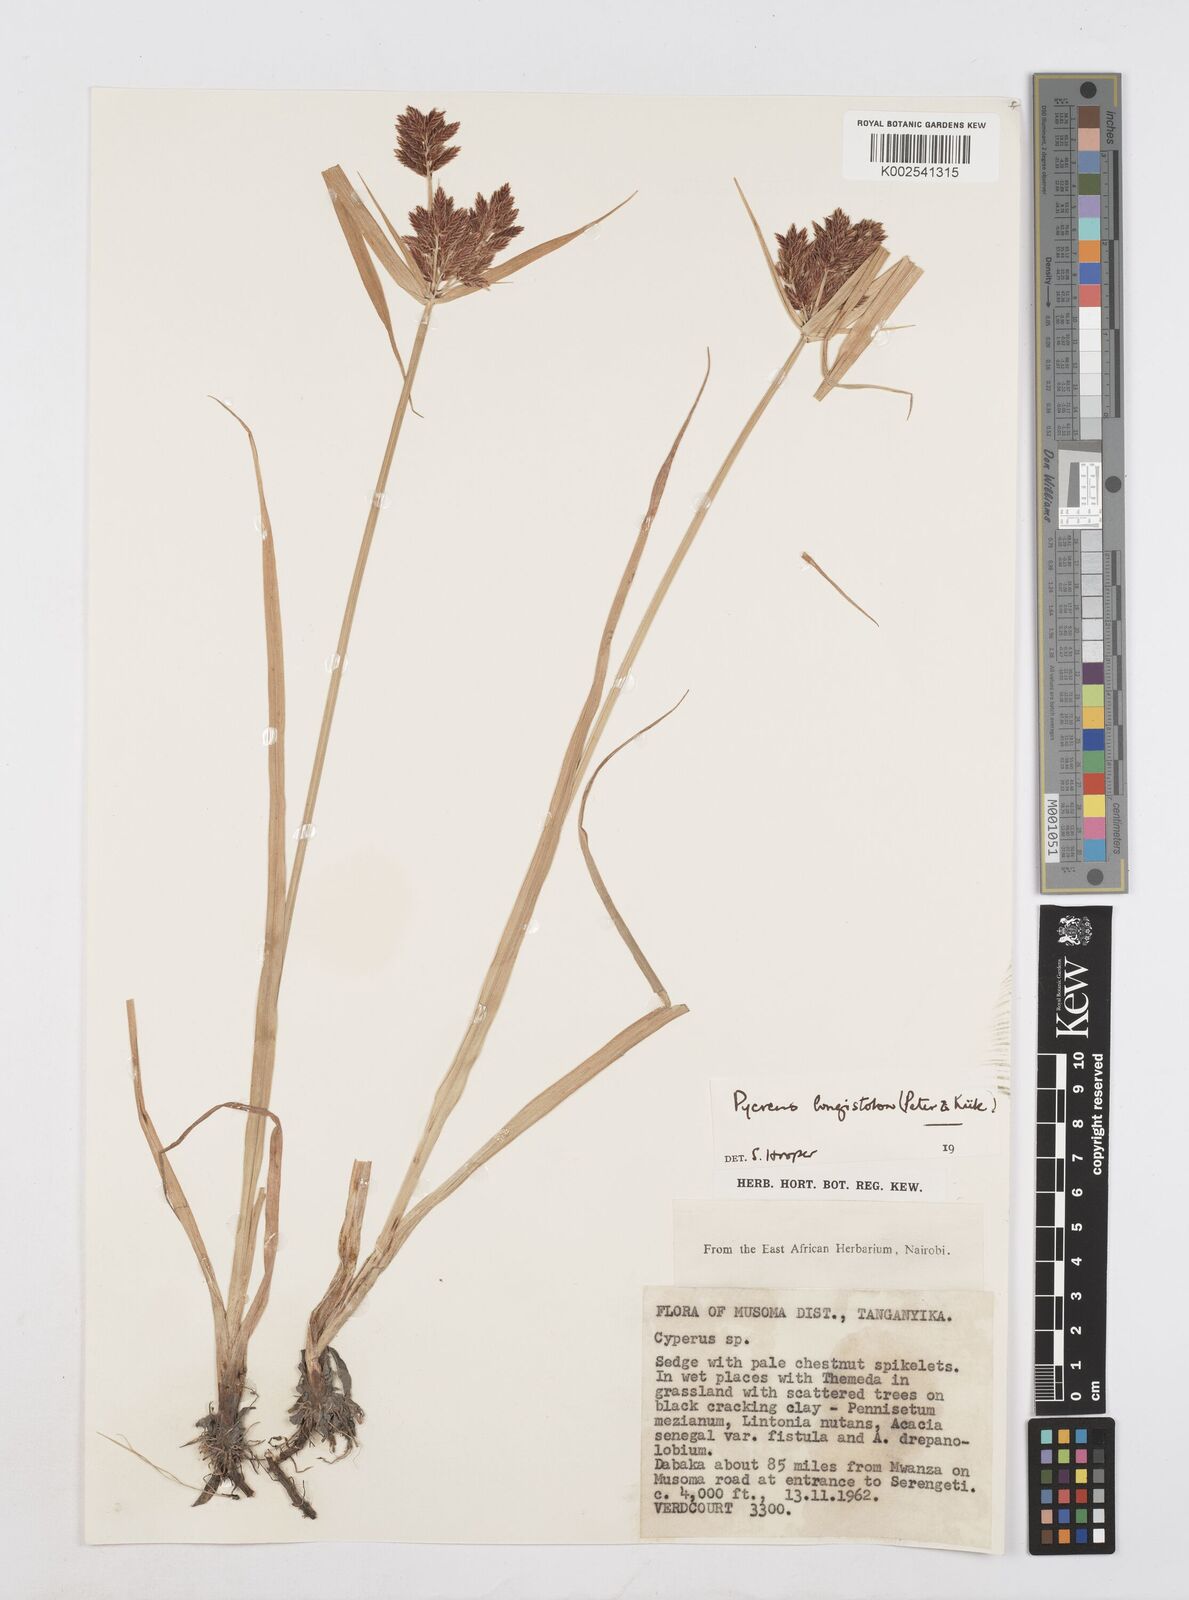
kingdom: Plantae
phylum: Tracheophyta
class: Liliopsida
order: Poales
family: Cyperaceae
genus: Cyperus
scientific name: Cyperus chrysanthus
